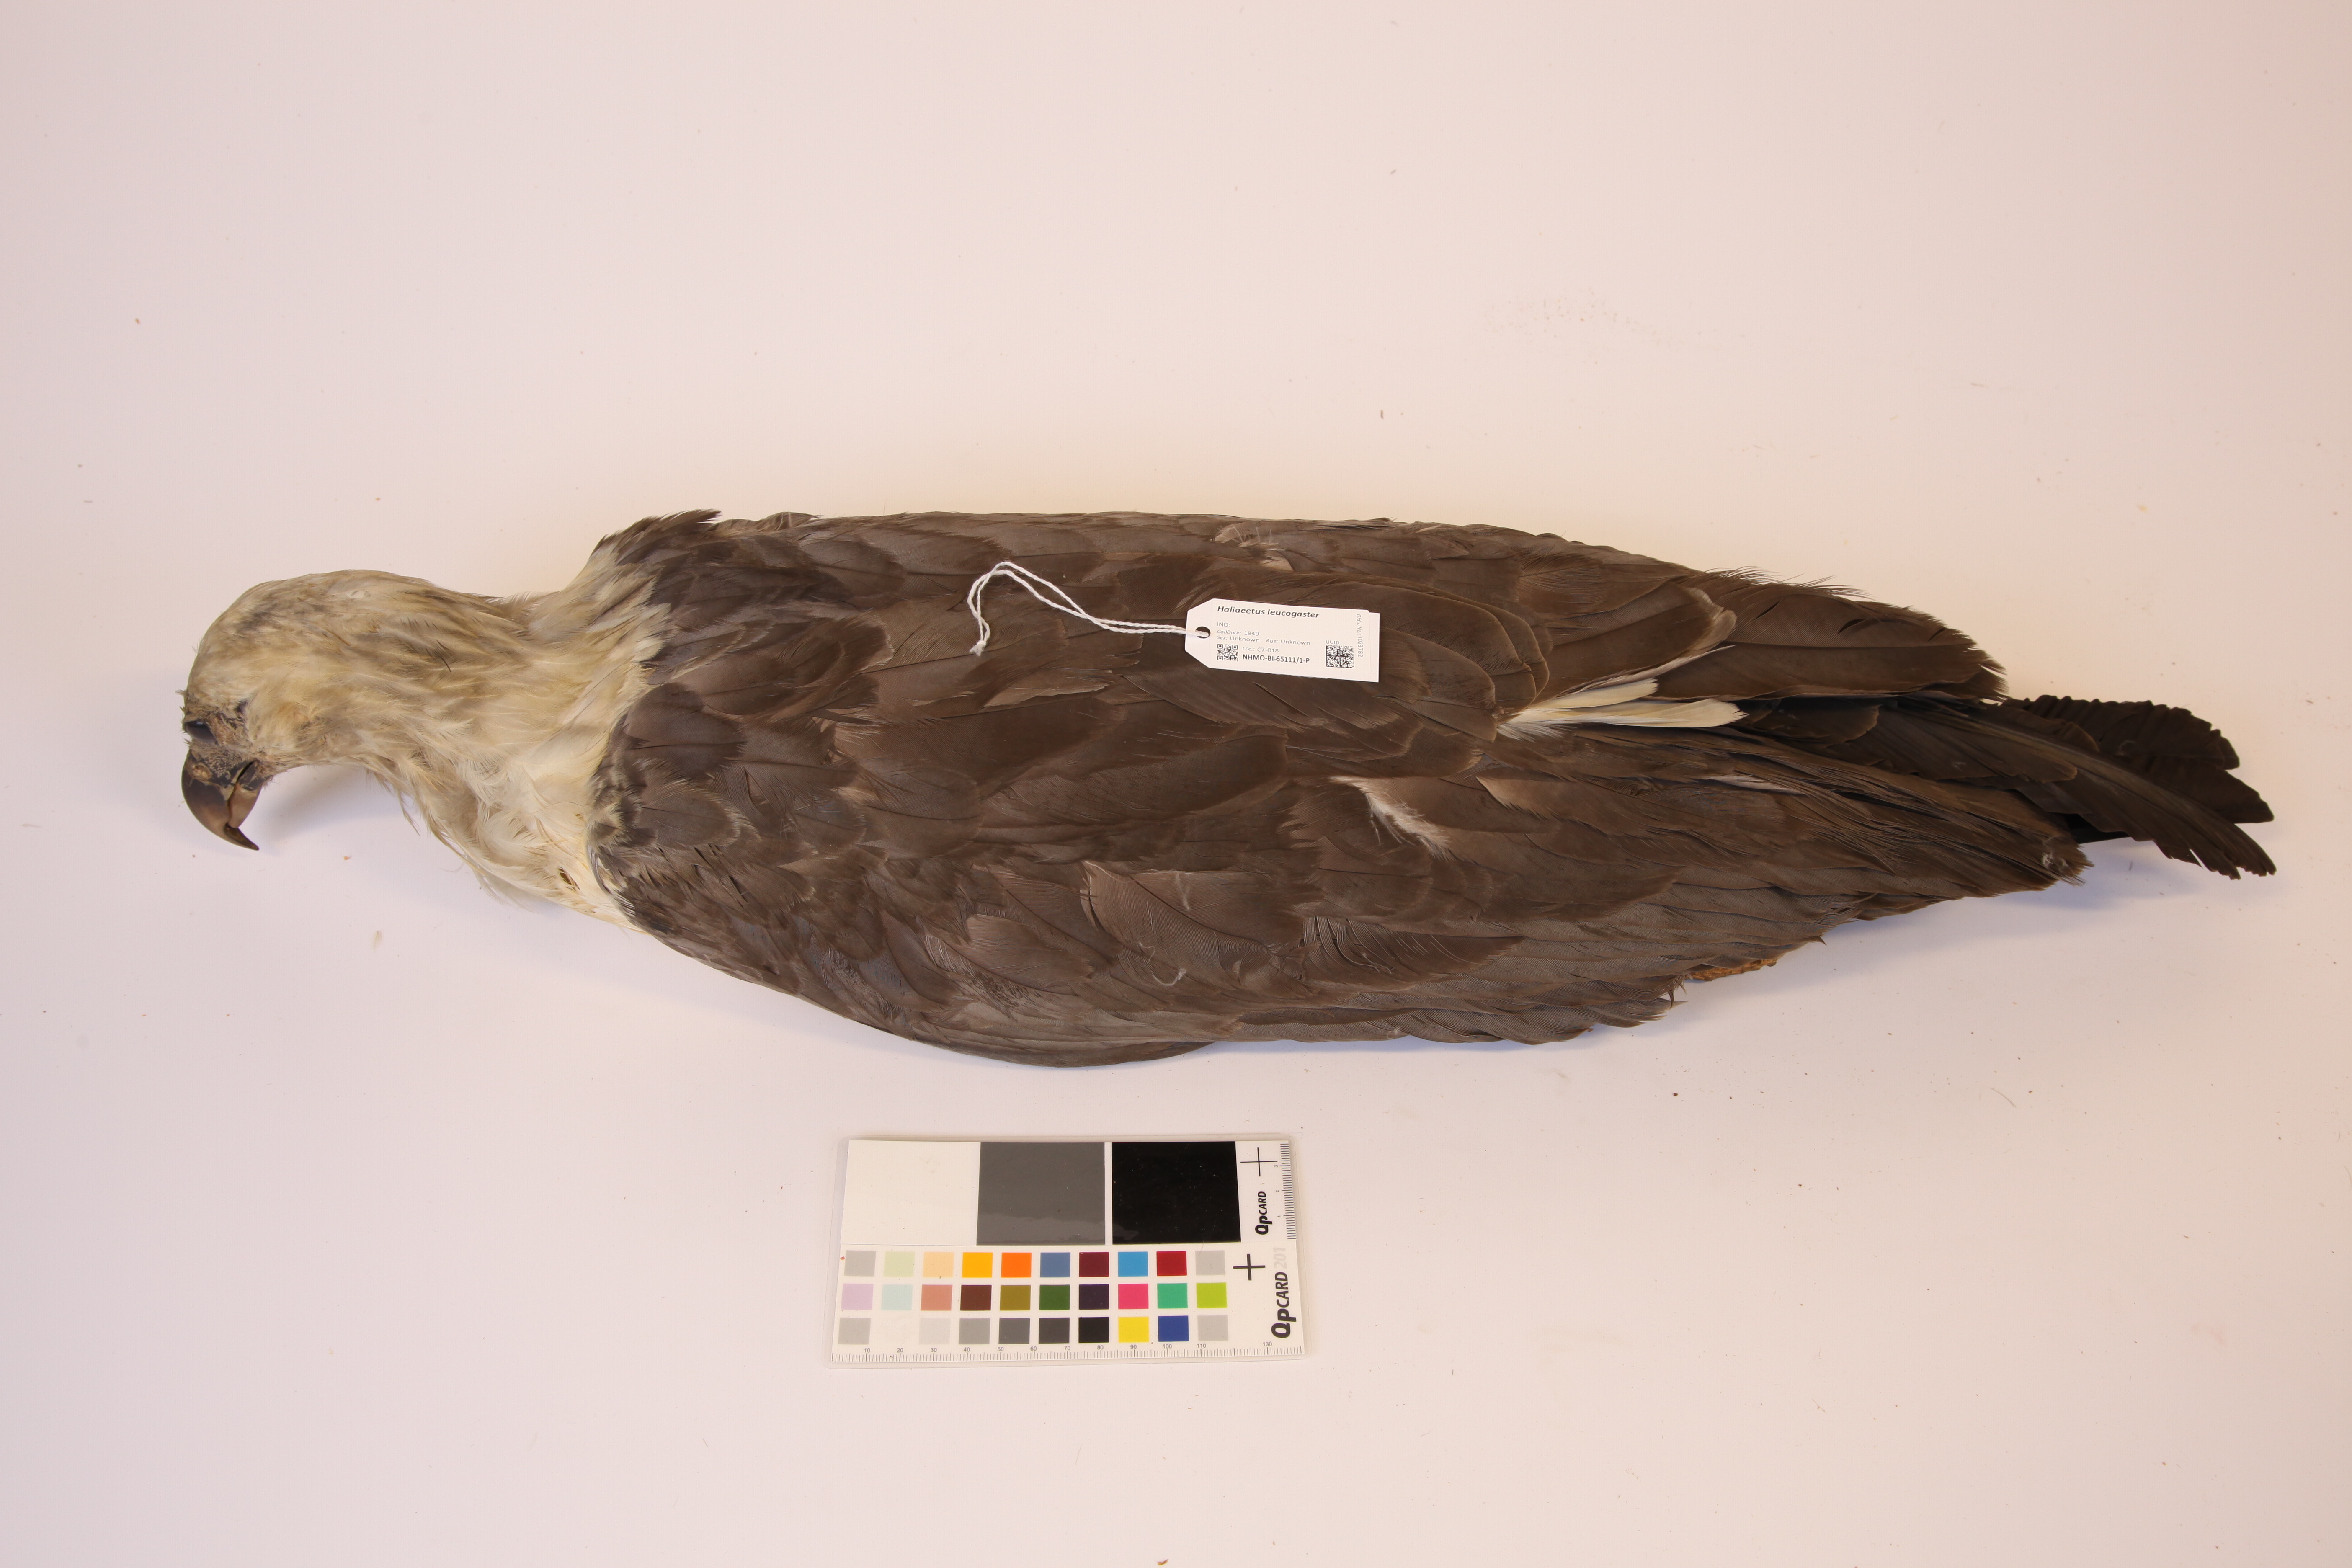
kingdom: Animalia
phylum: Chordata
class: Aves
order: Accipitriformes
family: Accipitridae
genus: Haliaeetus
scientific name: Haliaeetus leucogaster
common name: White-bellied sea eagle
